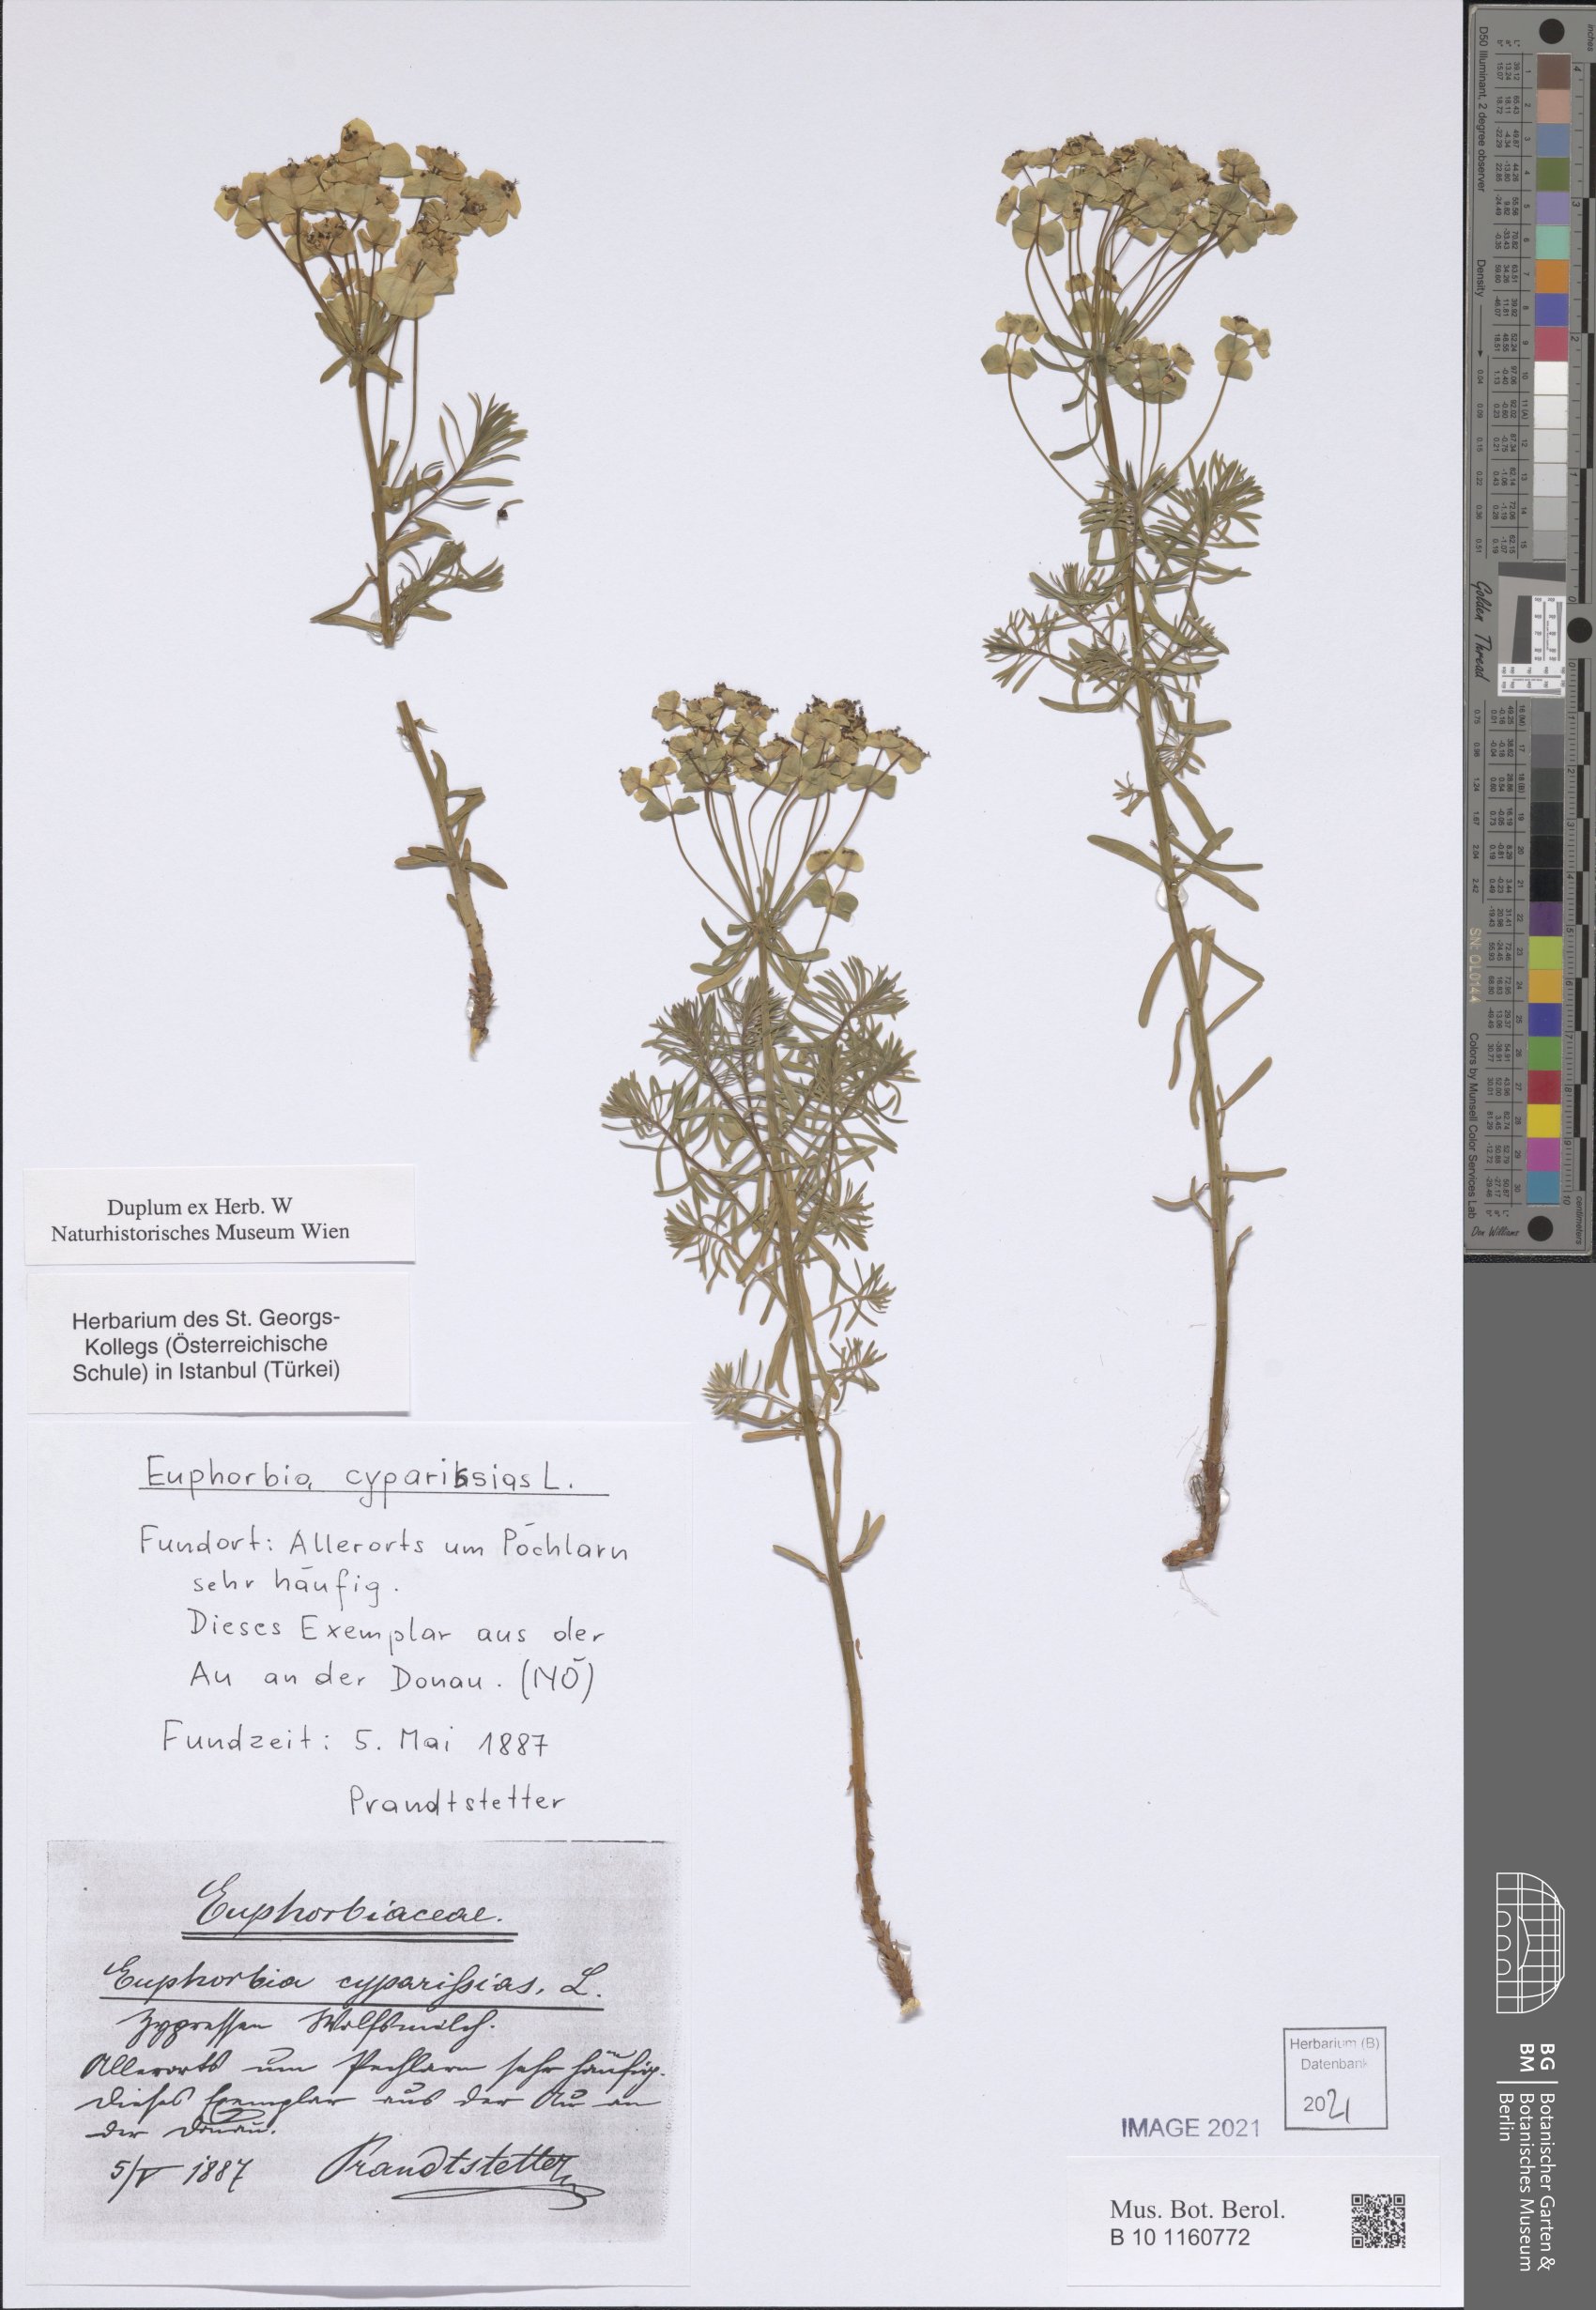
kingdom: Plantae
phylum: Tracheophyta
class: Magnoliopsida
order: Malpighiales
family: Euphorbiaceae
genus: Euphorbia
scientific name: Euphorbia cyparissias
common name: Cypress spurge
